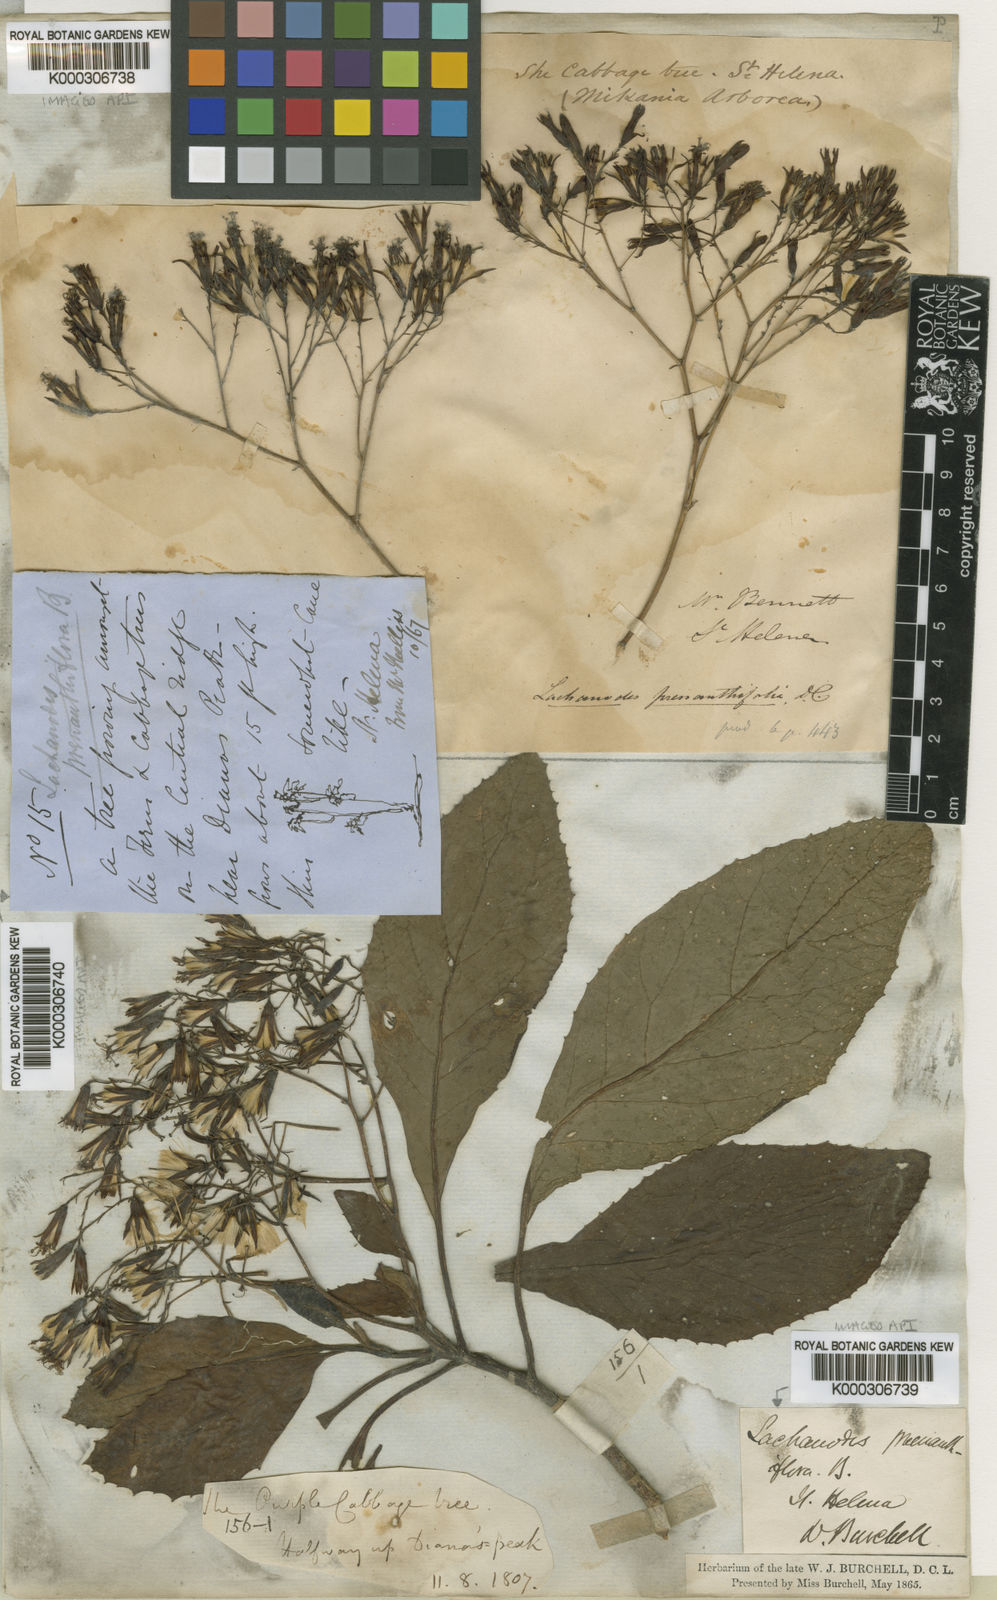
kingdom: Plantae
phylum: Tracheophyta
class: Magnoliopsida
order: Asterales
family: Asteraceae
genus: Lachanodes
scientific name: Lachanodes arborea
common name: She cabbage tree
